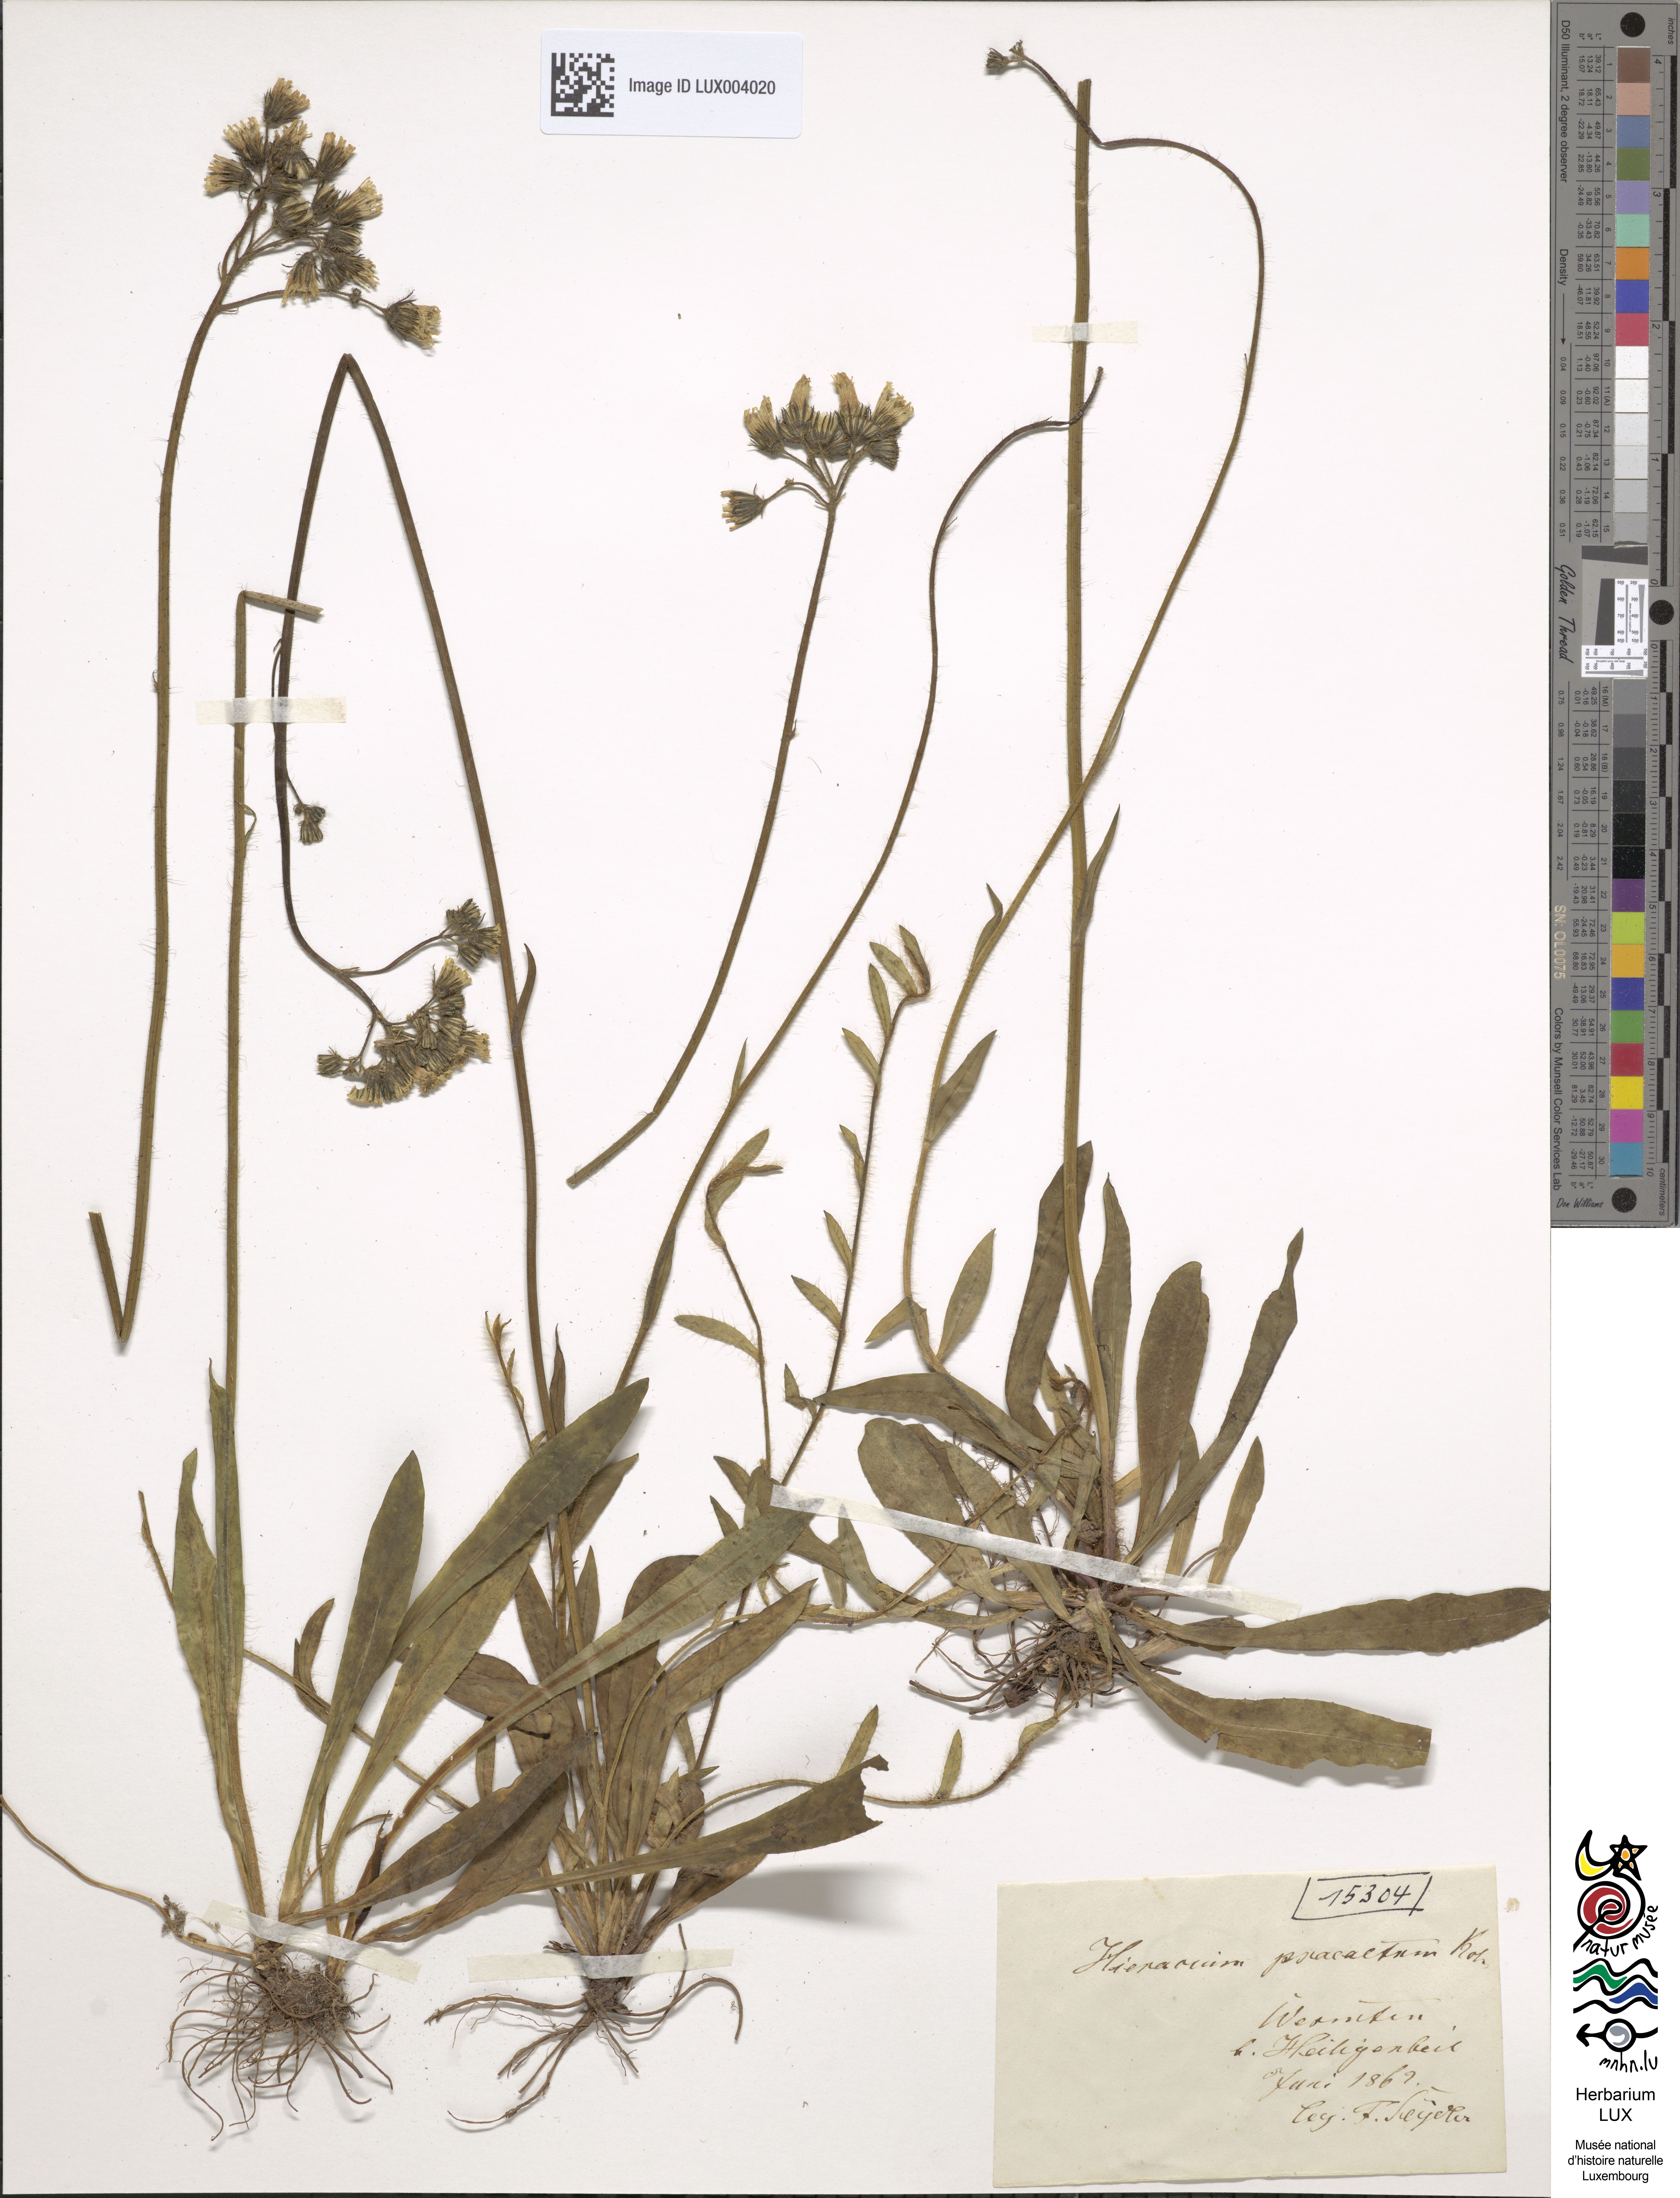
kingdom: Plantae
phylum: Tracheophyta
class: Magnoliopsida
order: Asterales
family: Asteraceae
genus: Pilosella
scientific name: Pilosella piloselloides
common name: Glaucous king-devil
